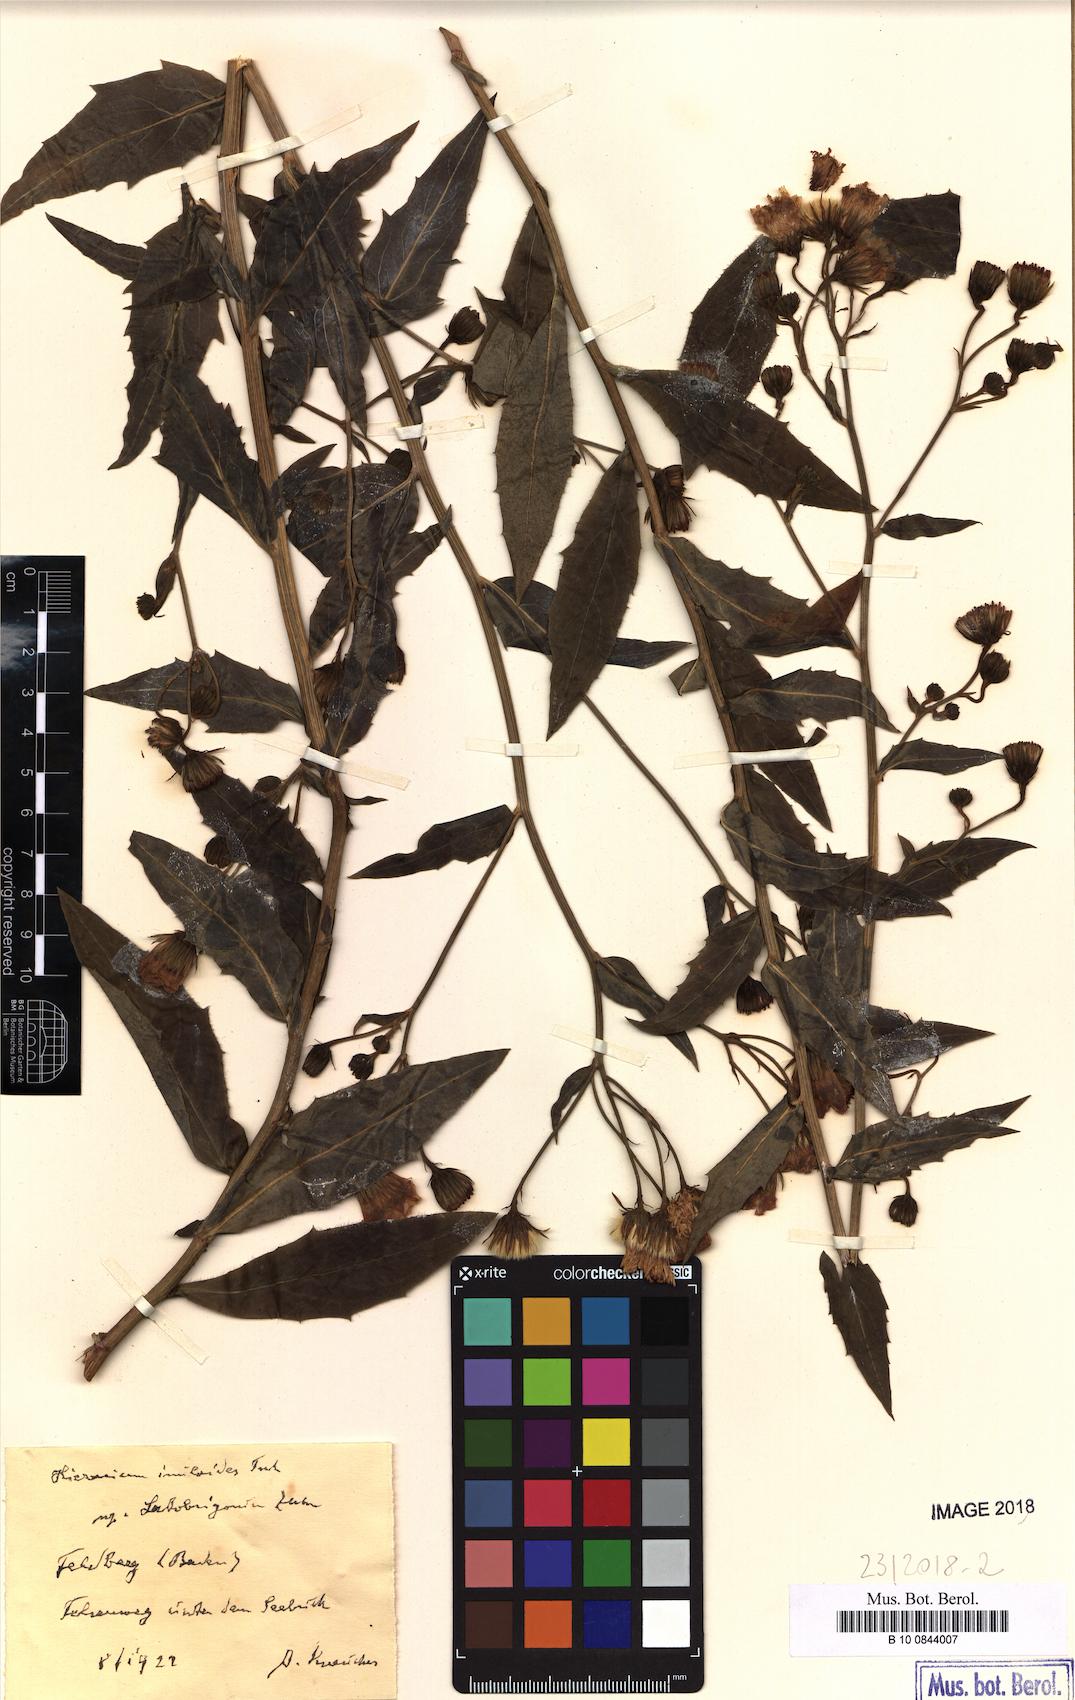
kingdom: Plantae
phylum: Tracheophyta
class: Magnoliopsida
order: Asterales
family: Asteraceae
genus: Hieracium
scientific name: Hieracium inuloides
